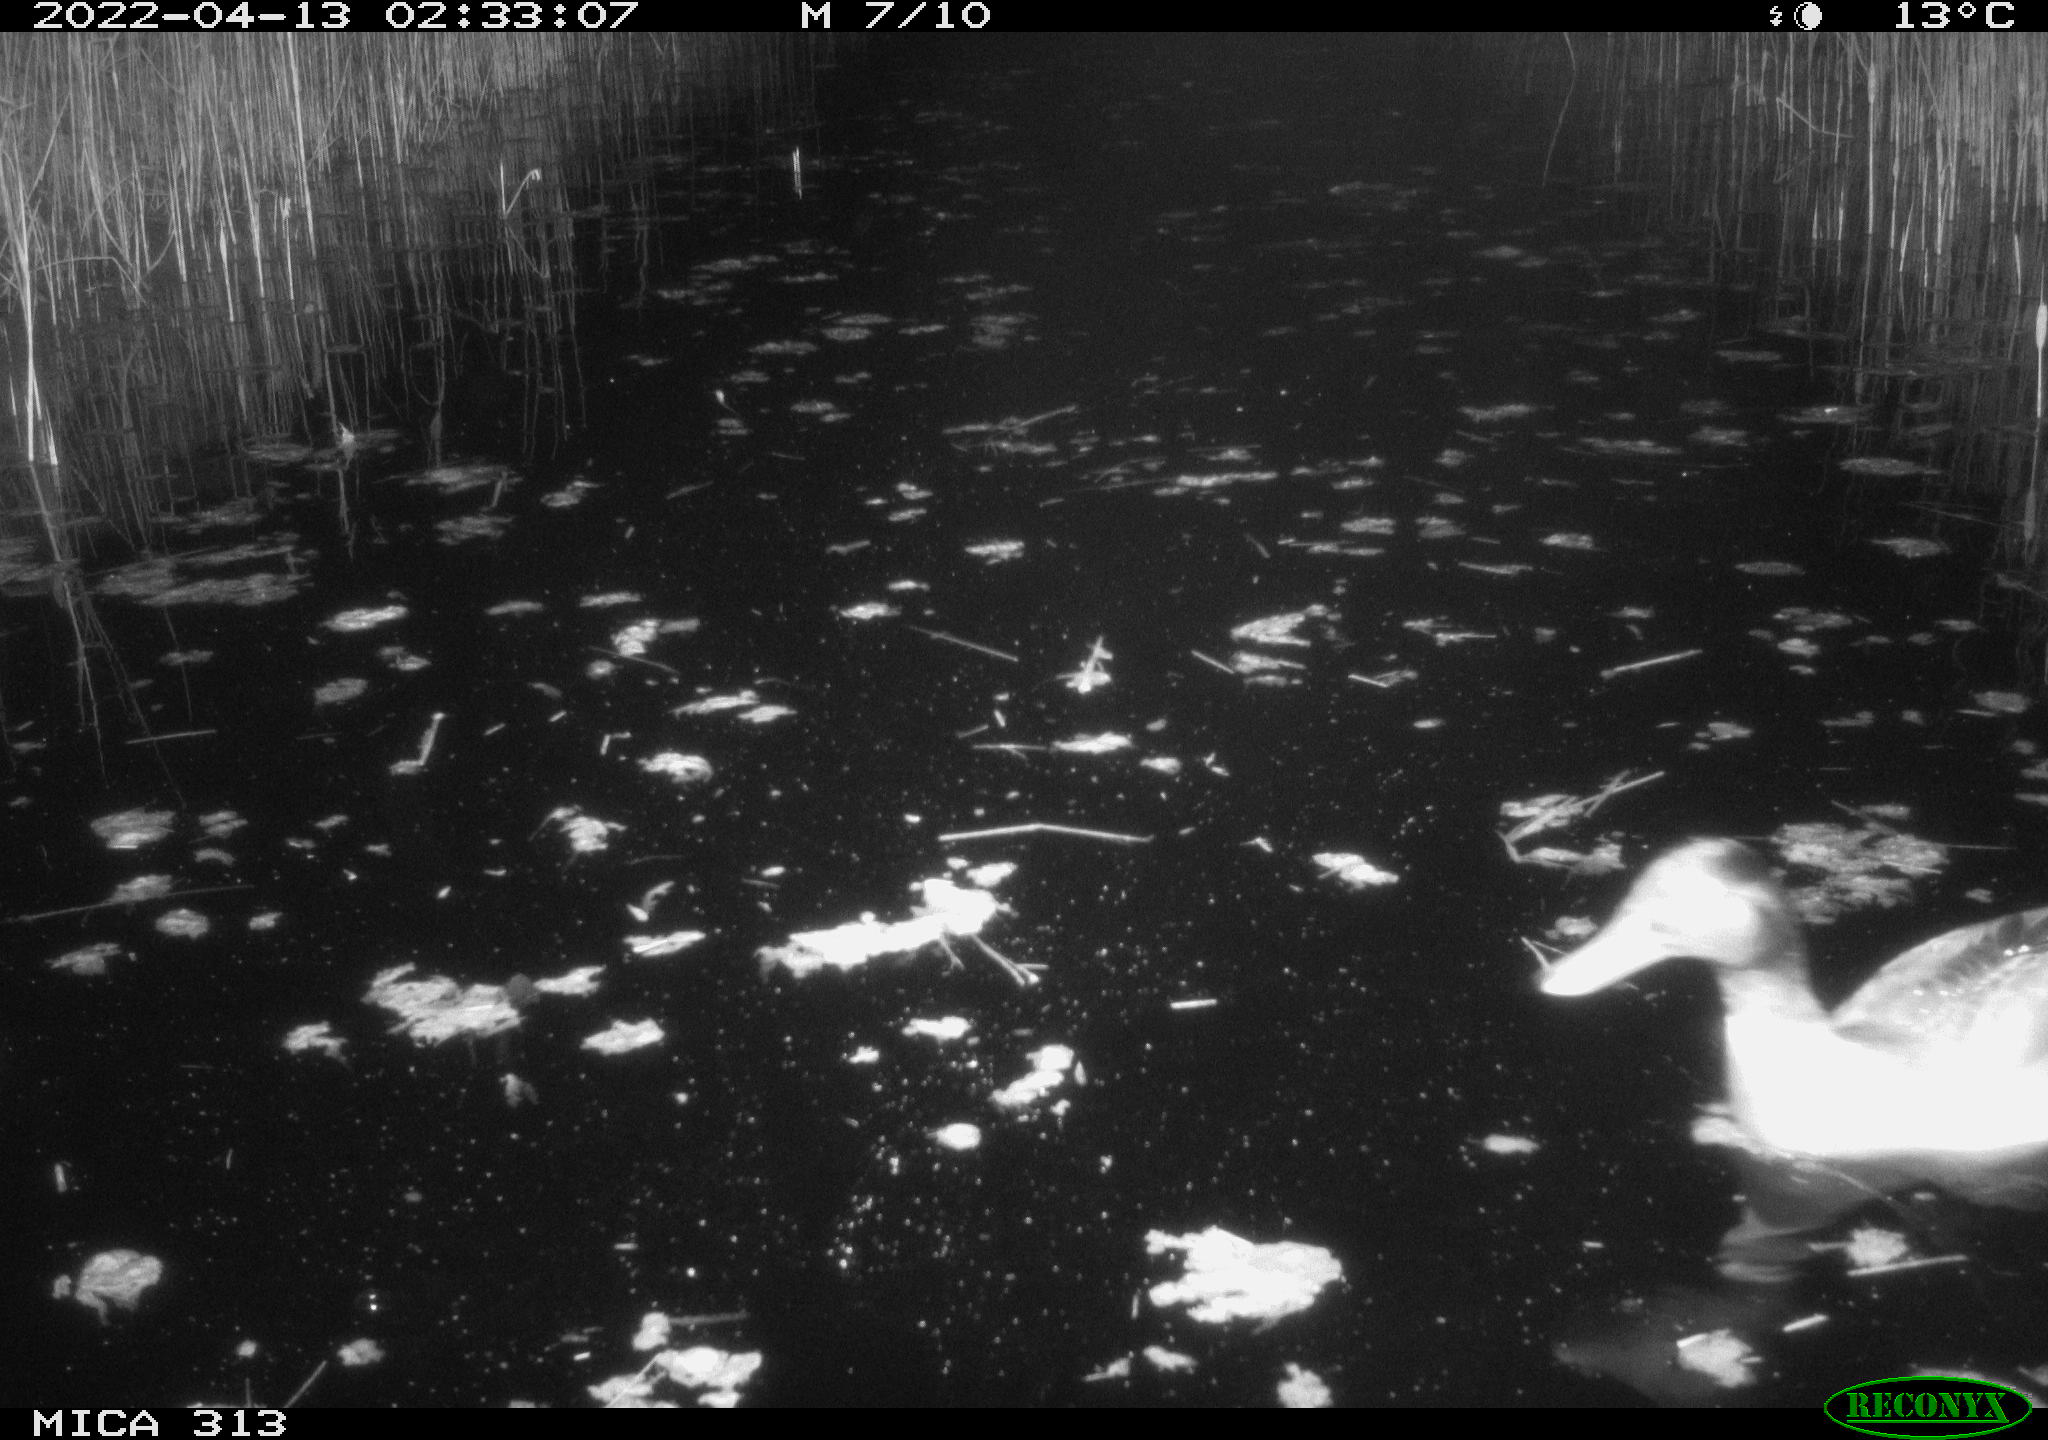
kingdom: Animalia
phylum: Chordata
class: Aves
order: Anseriformes
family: Anatidae
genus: Anas
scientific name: Anas platyrhynchos
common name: Mallard
